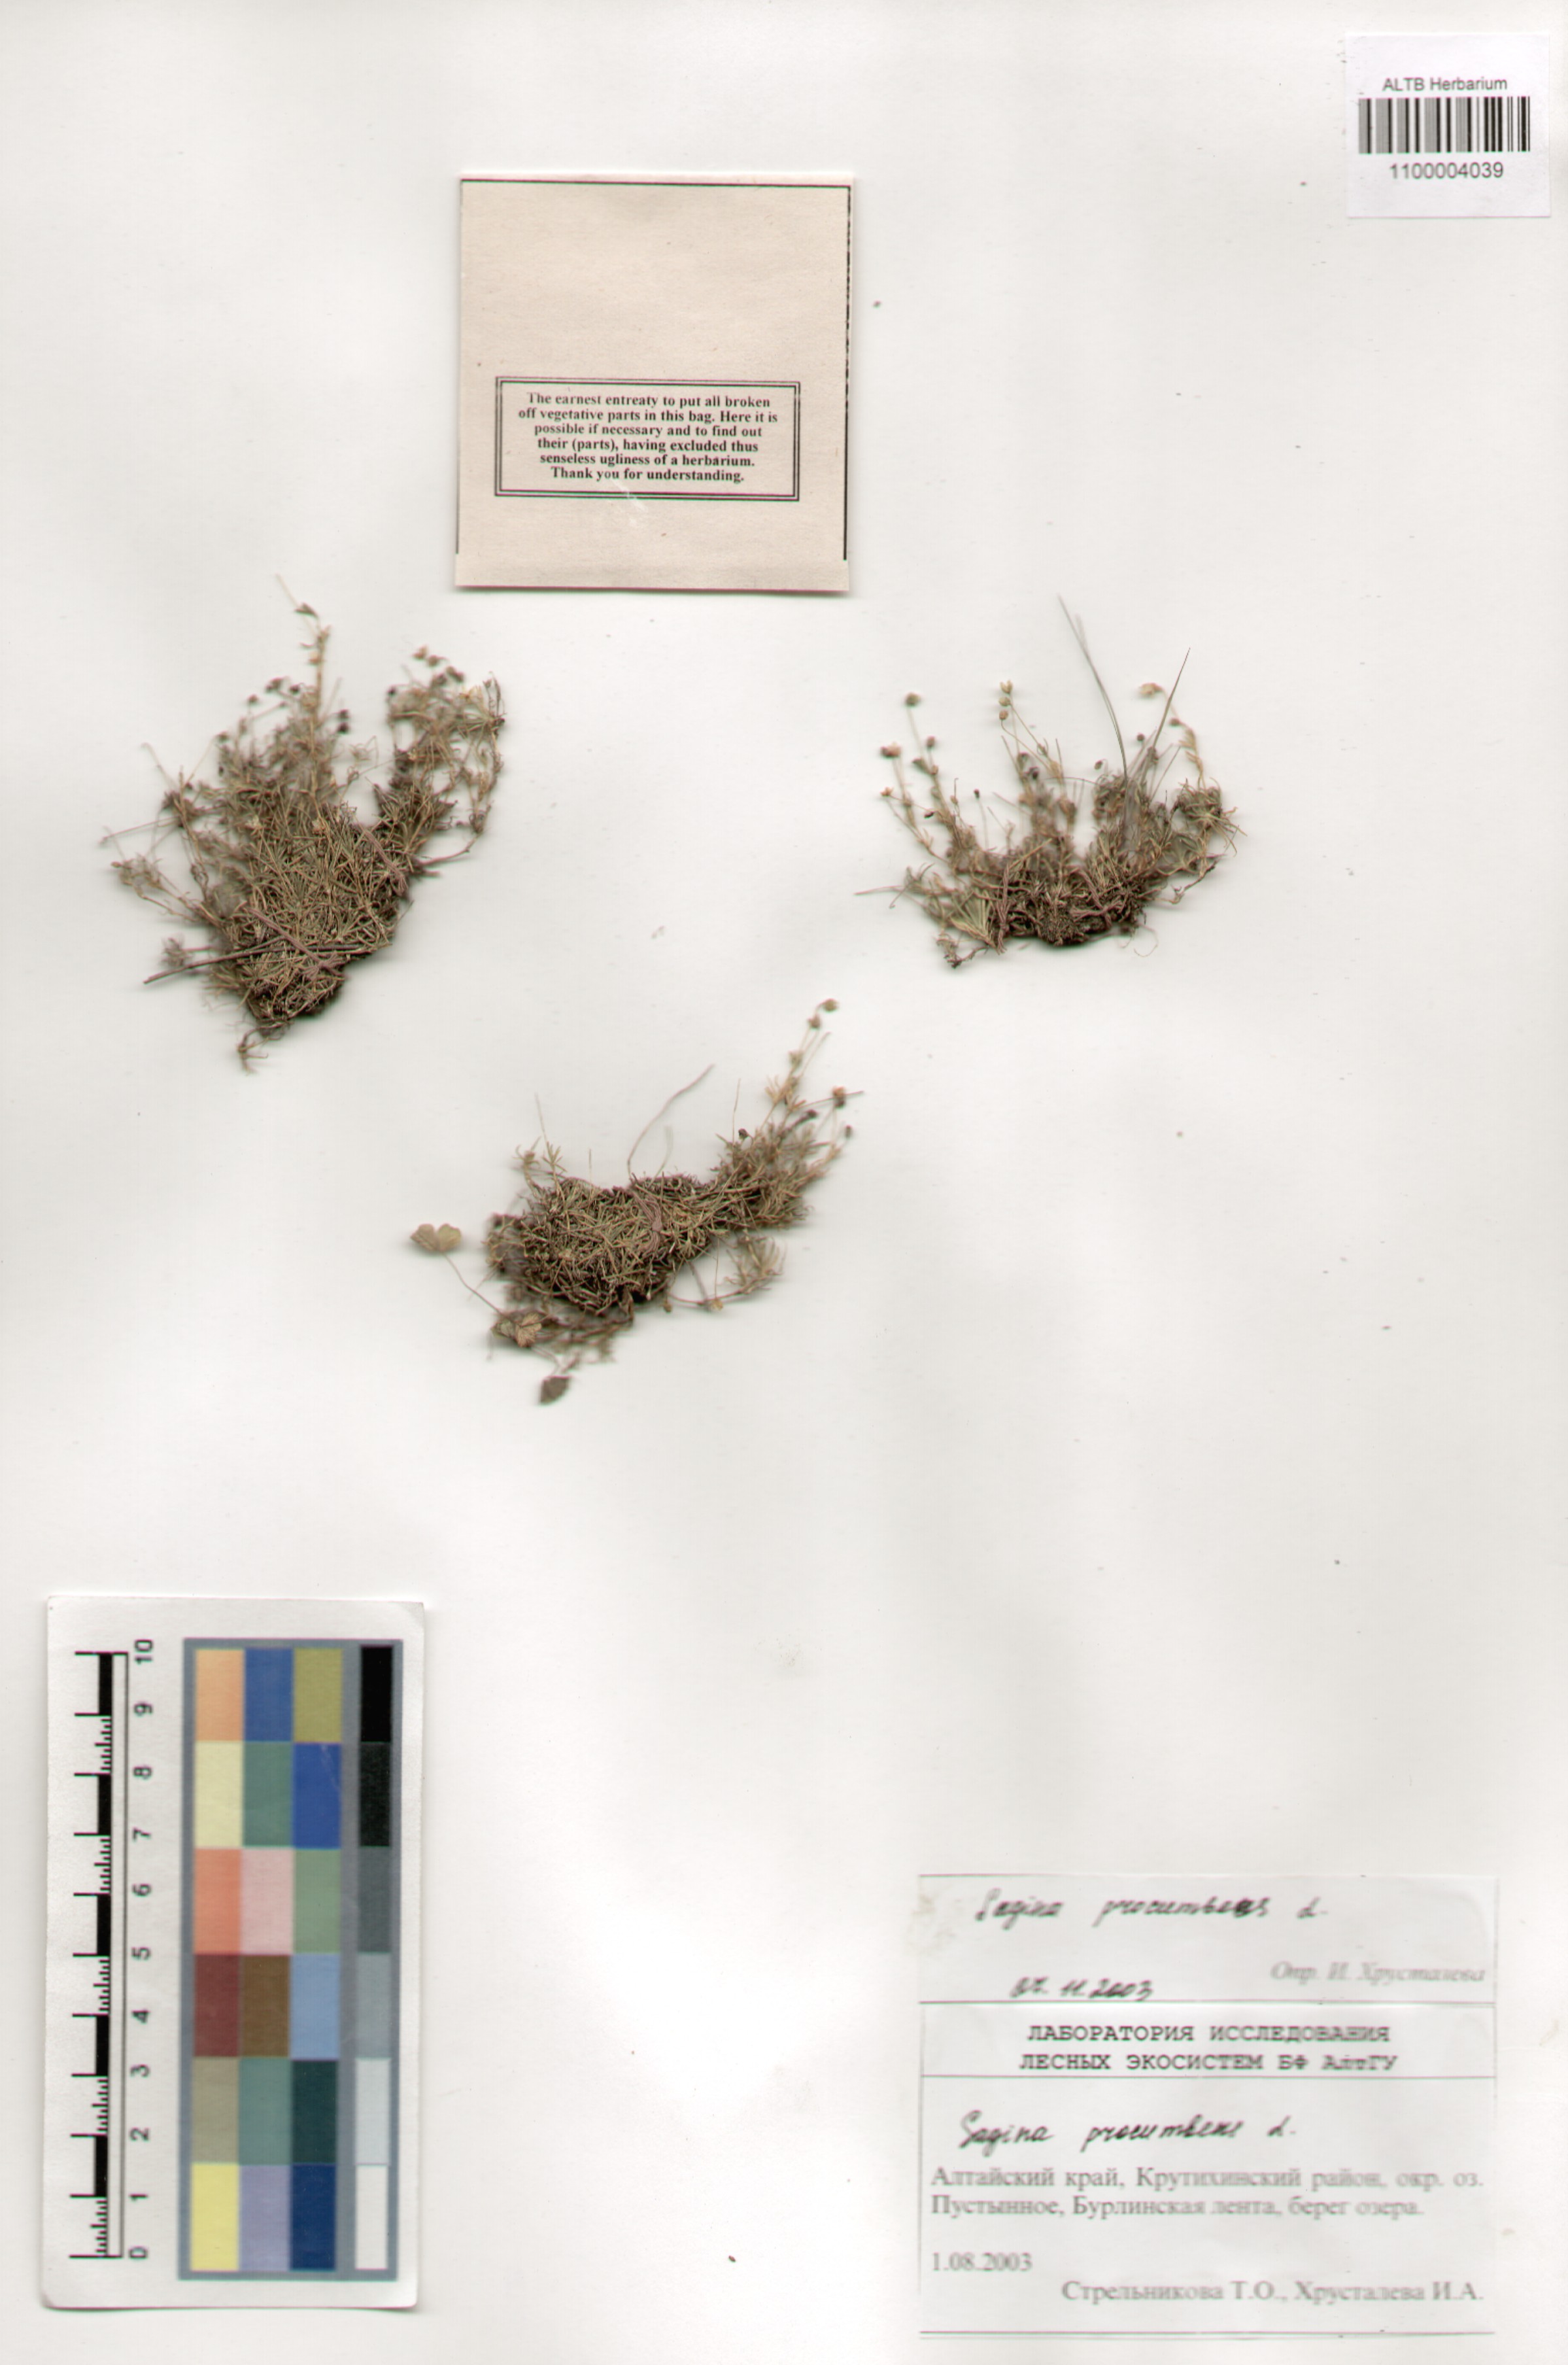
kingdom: Plantae
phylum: Tracheophyta
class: Magnoliopsida
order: Caryophyllales
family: Caryophyllaceae
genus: Sagina
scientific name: Sagina procumbens
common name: Procumbent pearlwort
